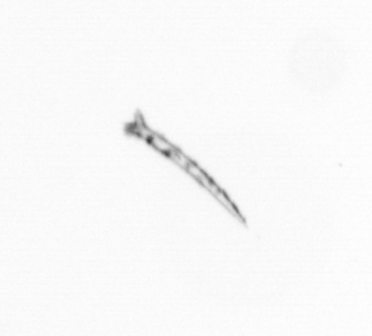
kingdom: Chromista
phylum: Ochrophyta
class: Bacillariophyceae
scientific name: Bacillariophyceae
